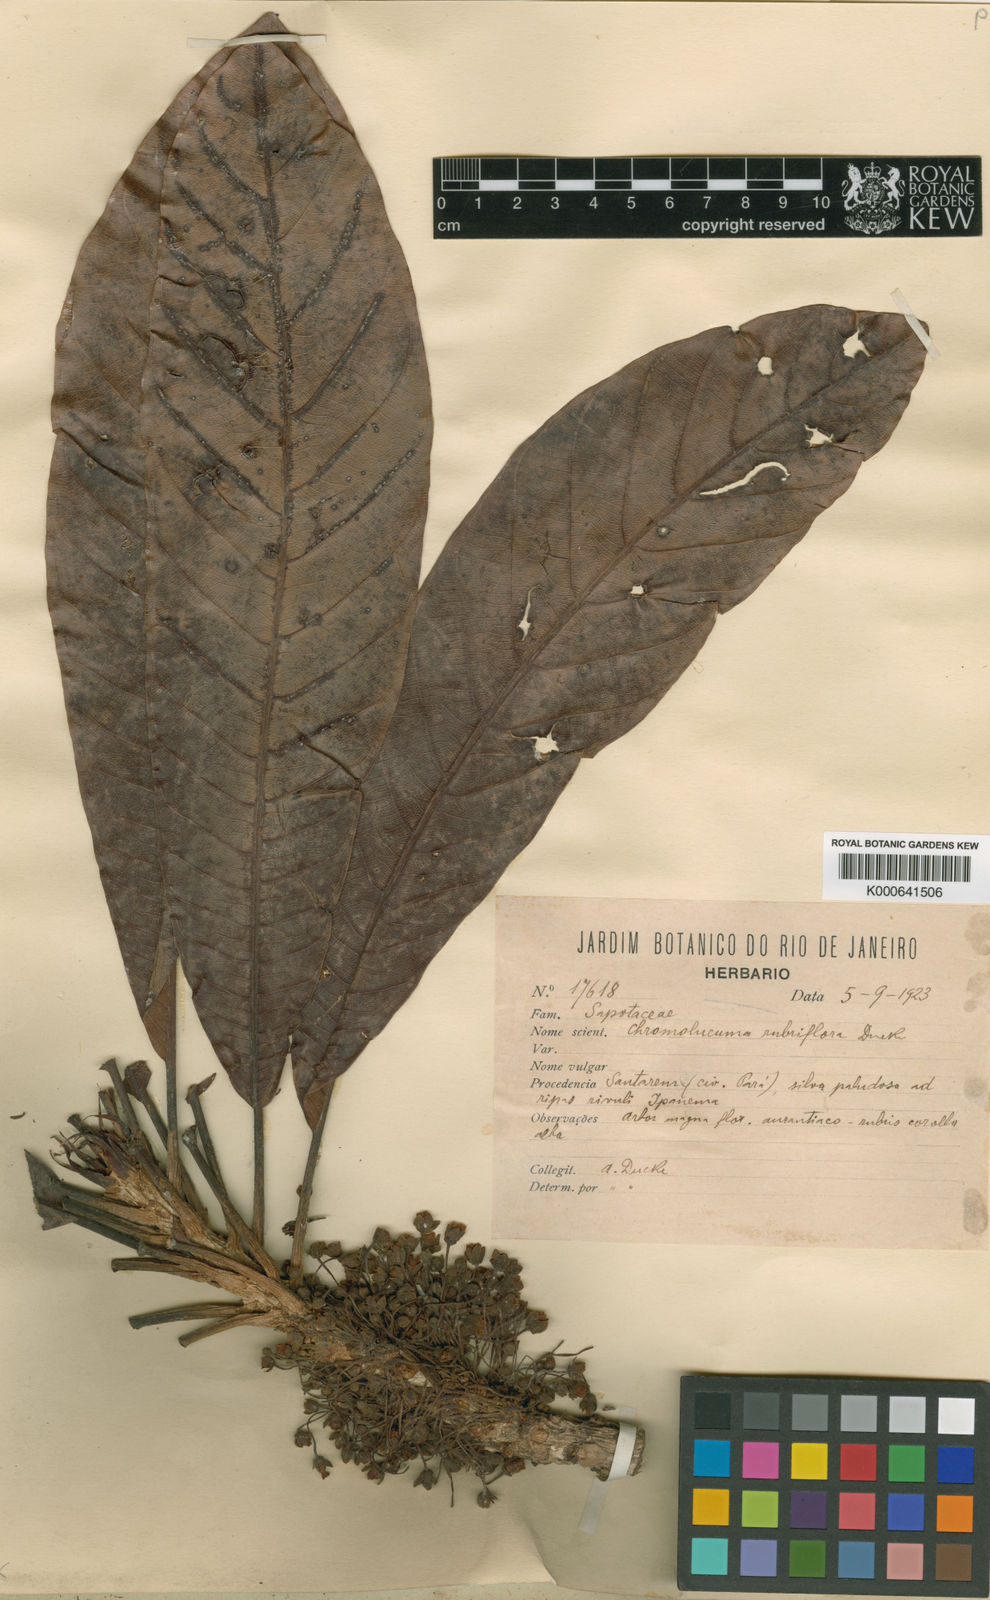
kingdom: Plantae
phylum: Tracheophyta
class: Magnoliopsida
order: Ericales
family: Sapotaceae
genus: Chromolucuma
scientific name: Chromolucuma rubriflora
